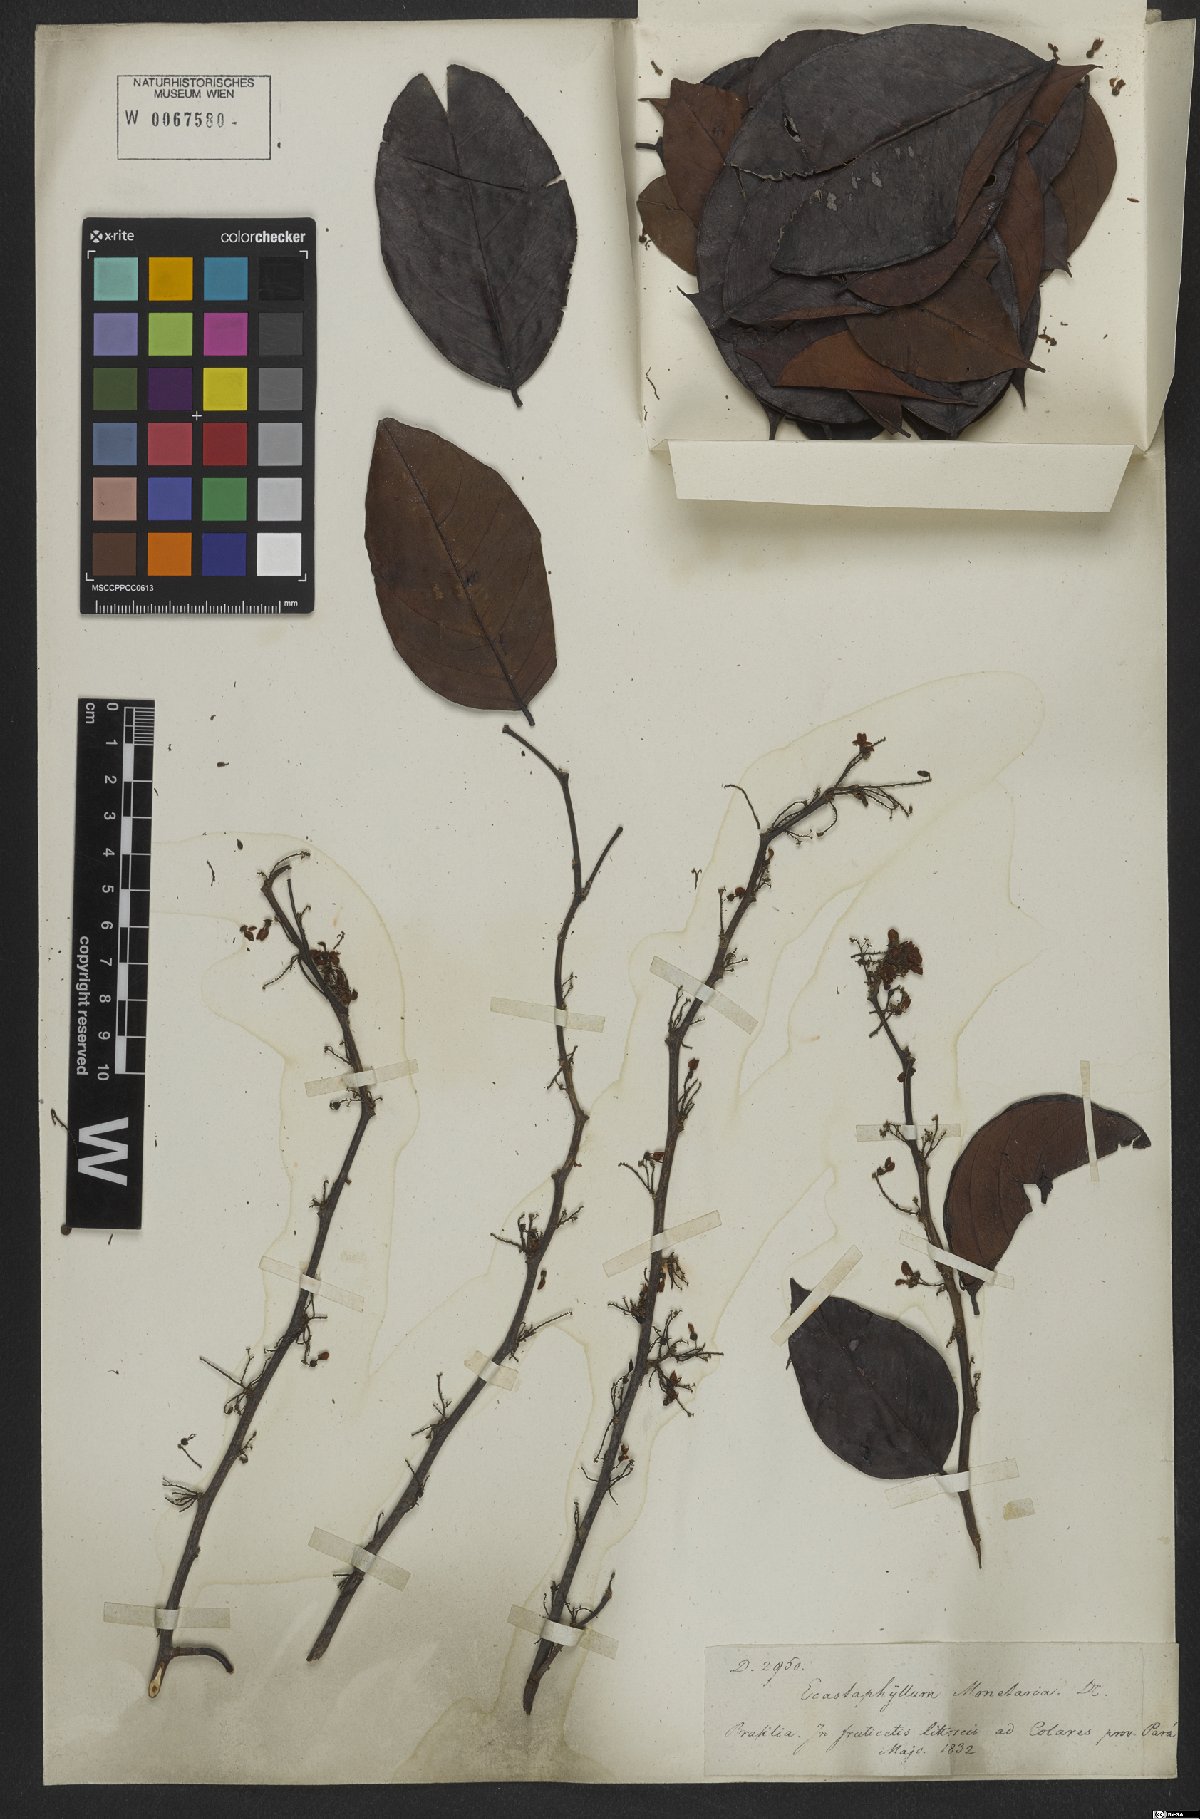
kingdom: Plantae
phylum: Tracheophyta
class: Magnoliopsida
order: Fabales
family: Fabaceae
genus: Dalbergia
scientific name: Dalbergia ovalis
